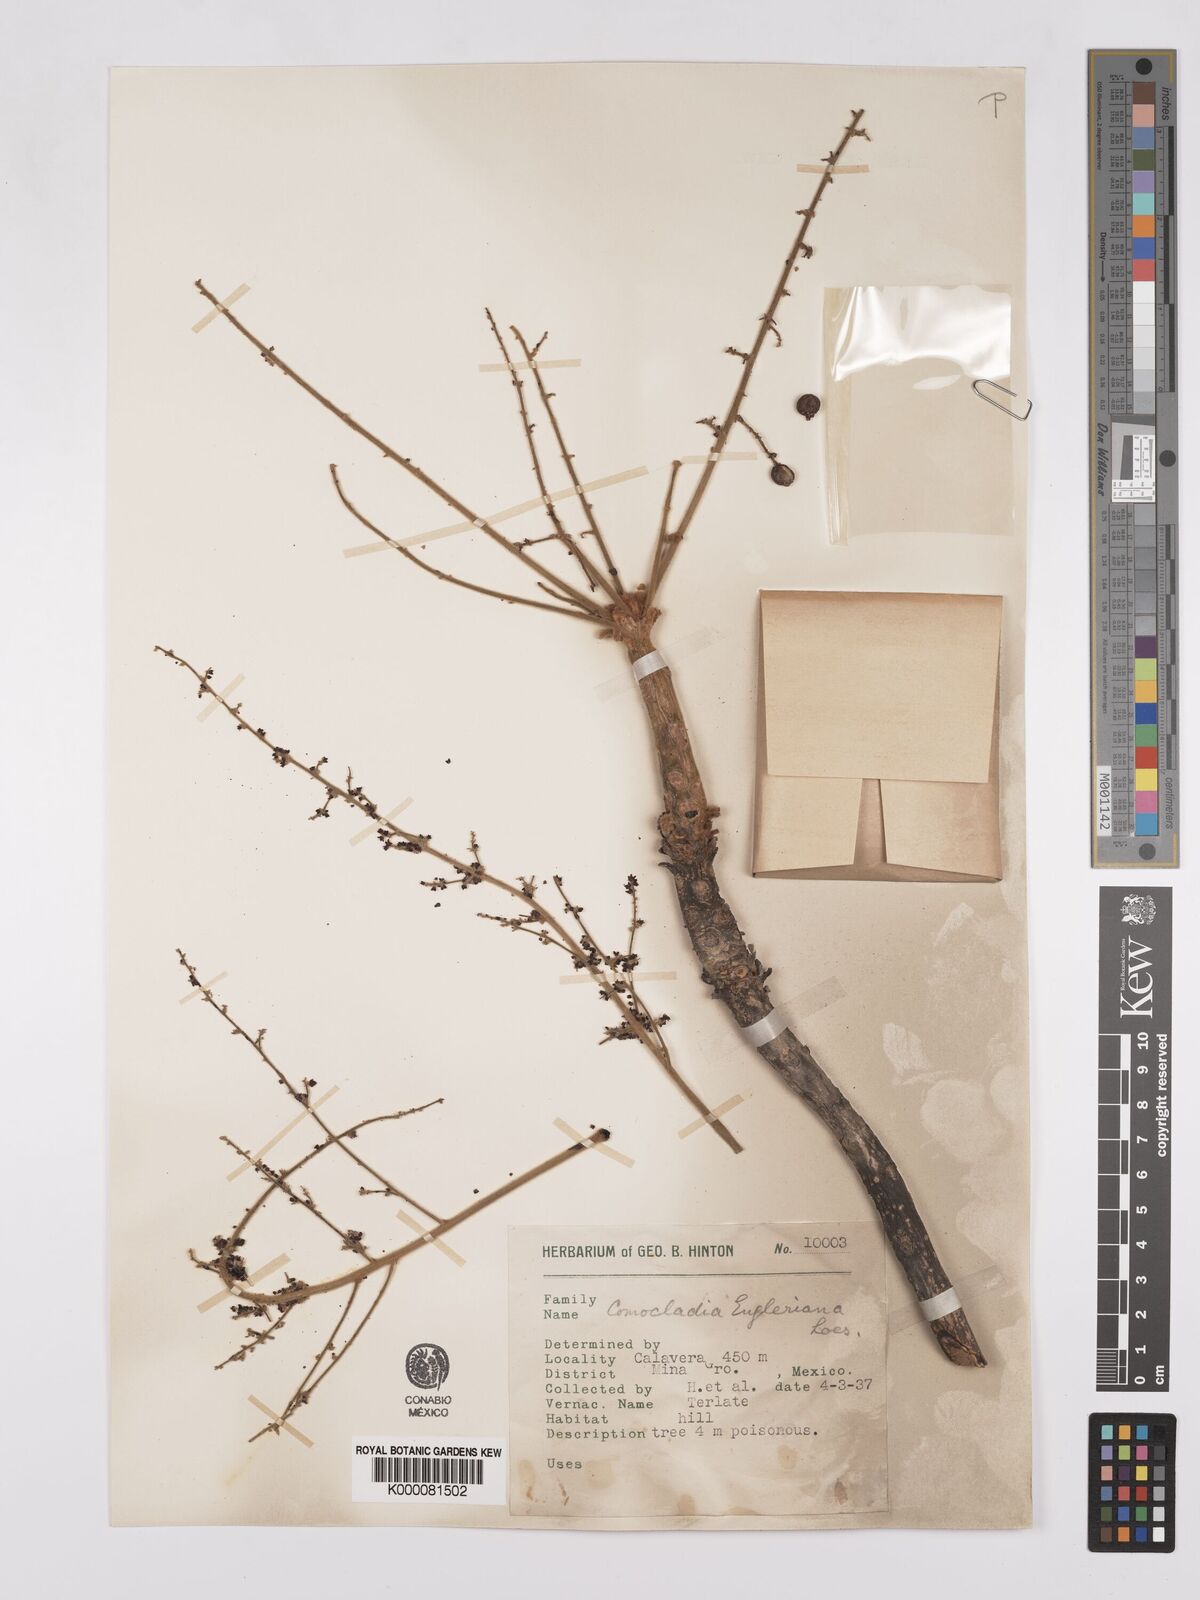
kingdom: Plantae
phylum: Tracheophyta
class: Magnoliopsida
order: Sapindales
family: Anacardiaceae
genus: Comocladia
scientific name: Comocladia
